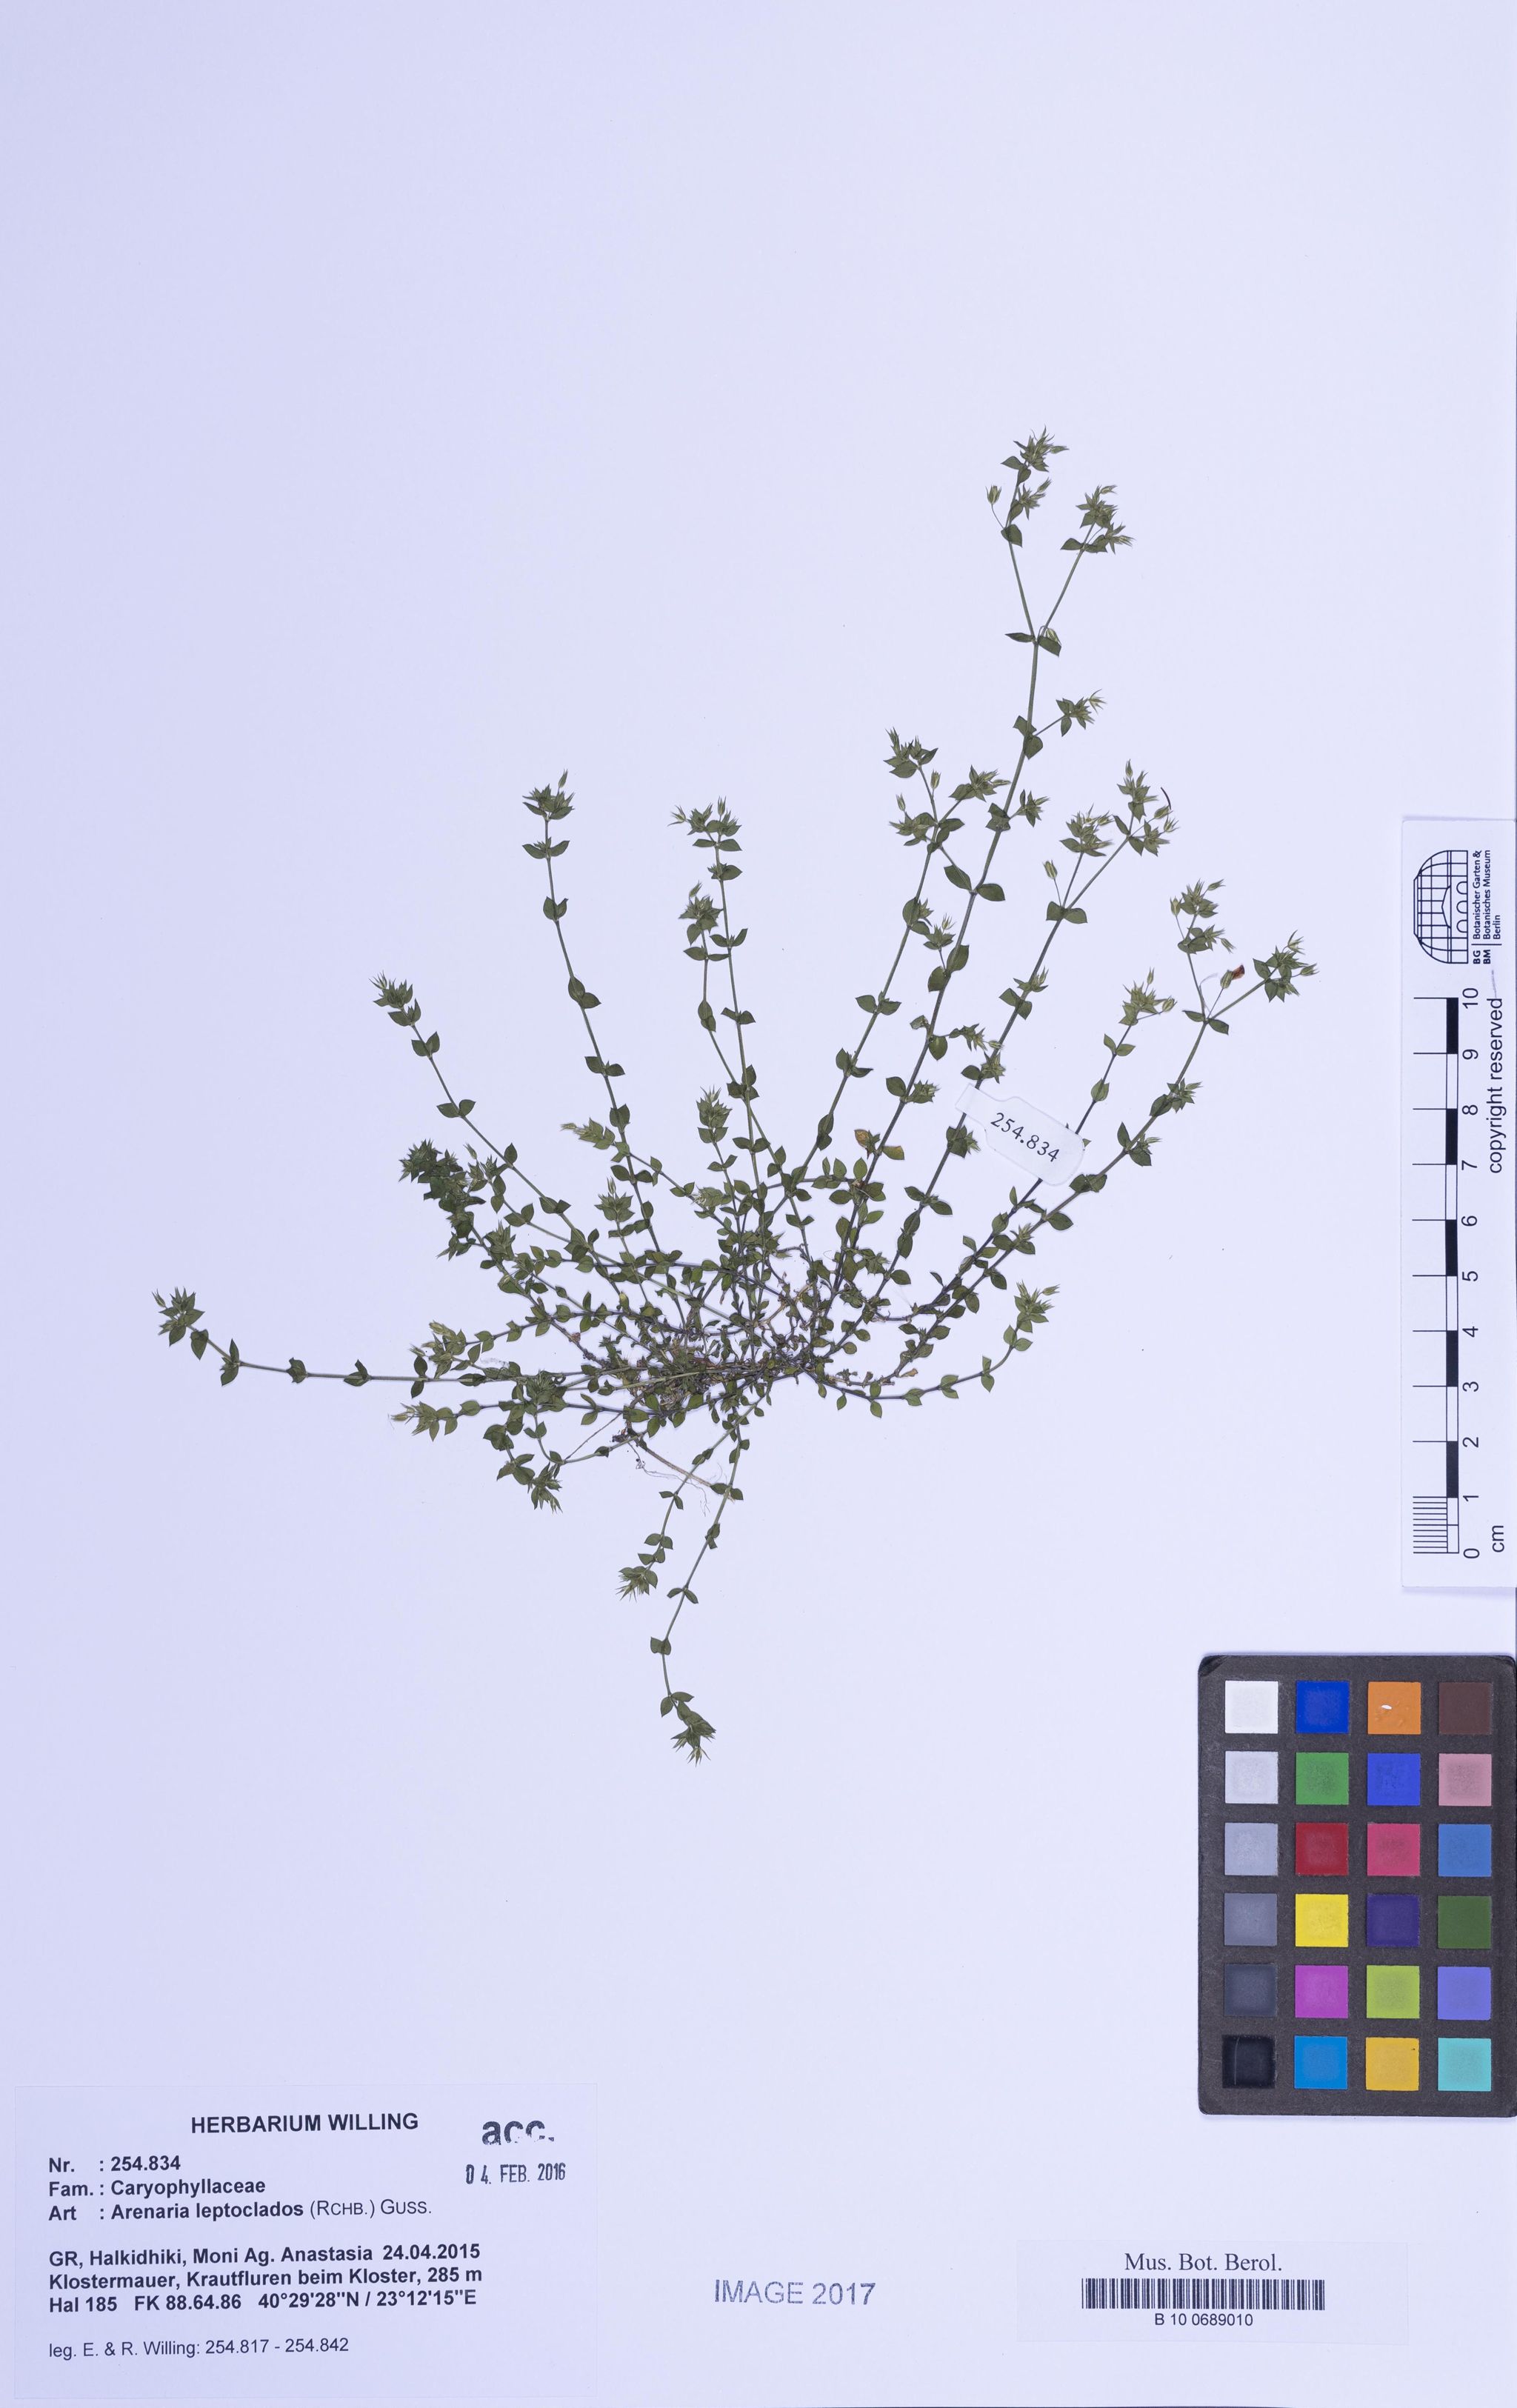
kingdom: Plantae
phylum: Tracheophyta
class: Magnoliopsida
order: Caryophyllales
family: Caryophyllaceae
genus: Arenaria
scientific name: Arenaria leptoclados
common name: Thyme-leaved sandwort
